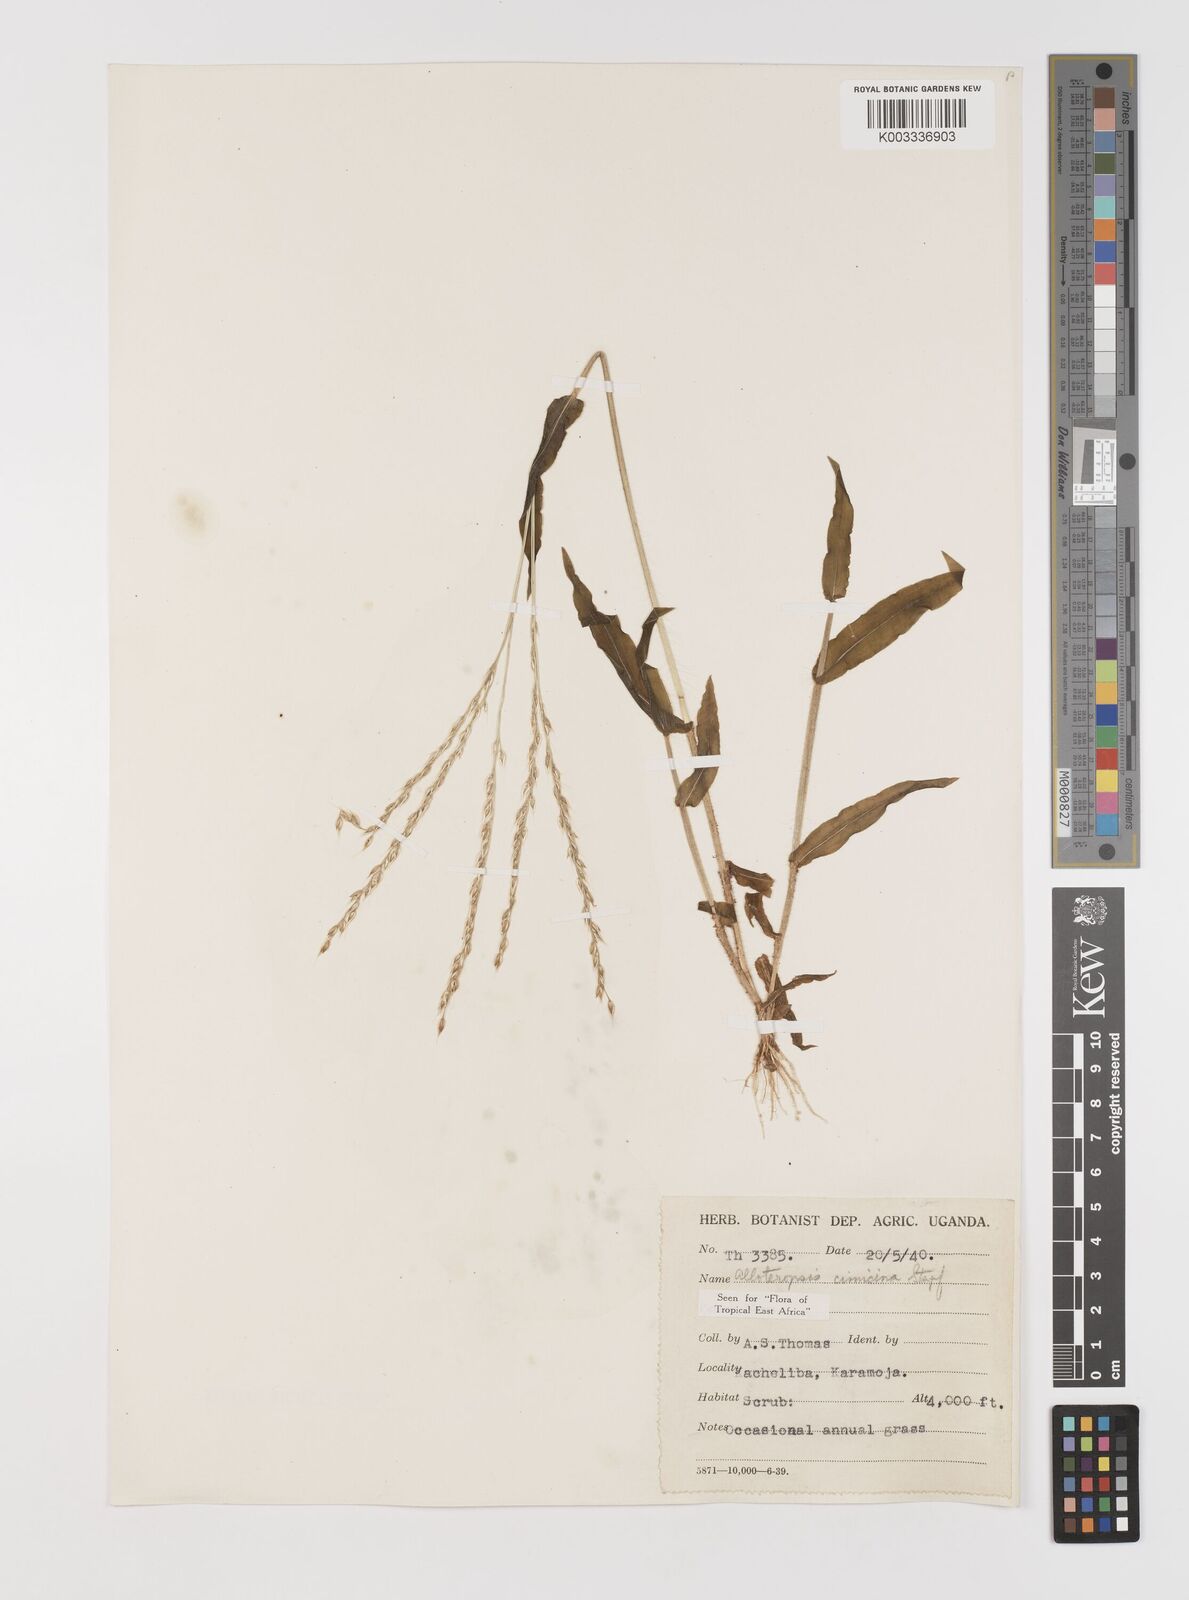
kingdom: Plantae
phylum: Tracheophyta
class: Liliopsida
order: Poales
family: Poaceae
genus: Alloteropsis
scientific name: Alloteropsis cimicina
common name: Summergrass
